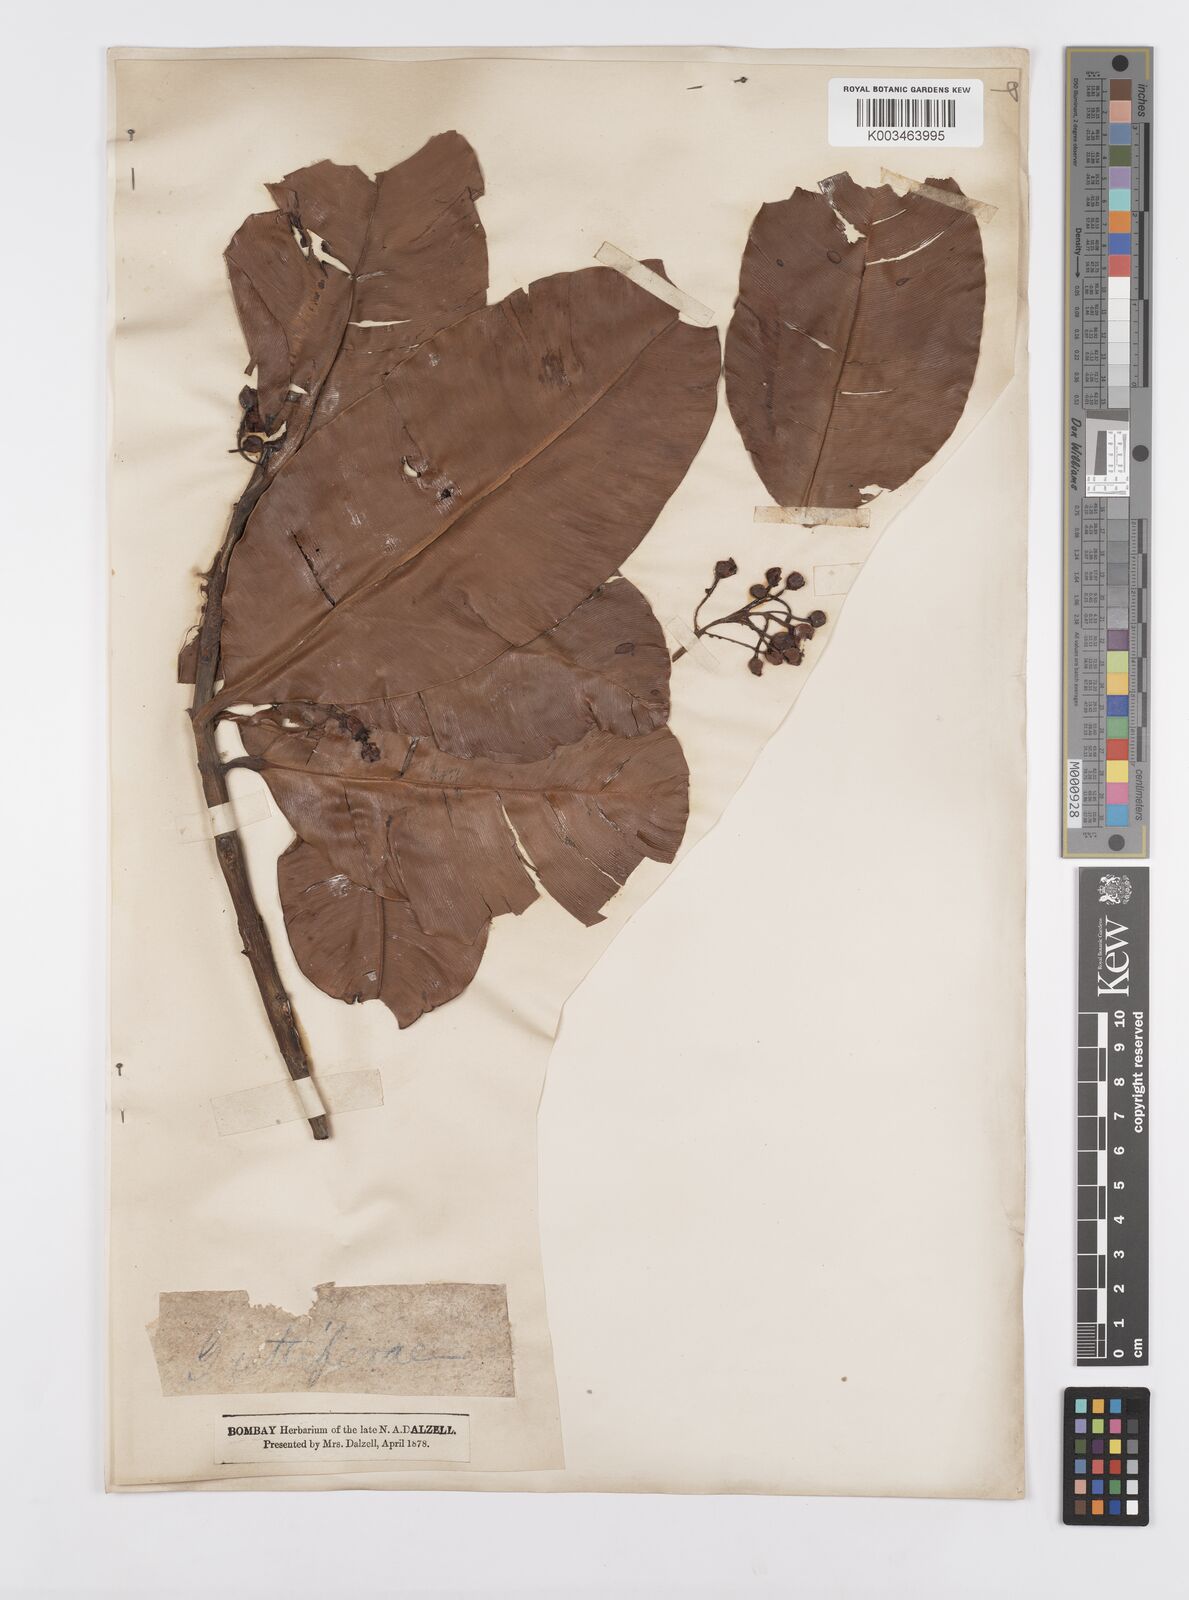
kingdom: Plantae
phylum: Tracheophyta
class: Magnoliopsida
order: Malpighiales
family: Clusiaceae
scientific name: Clusiaceae
